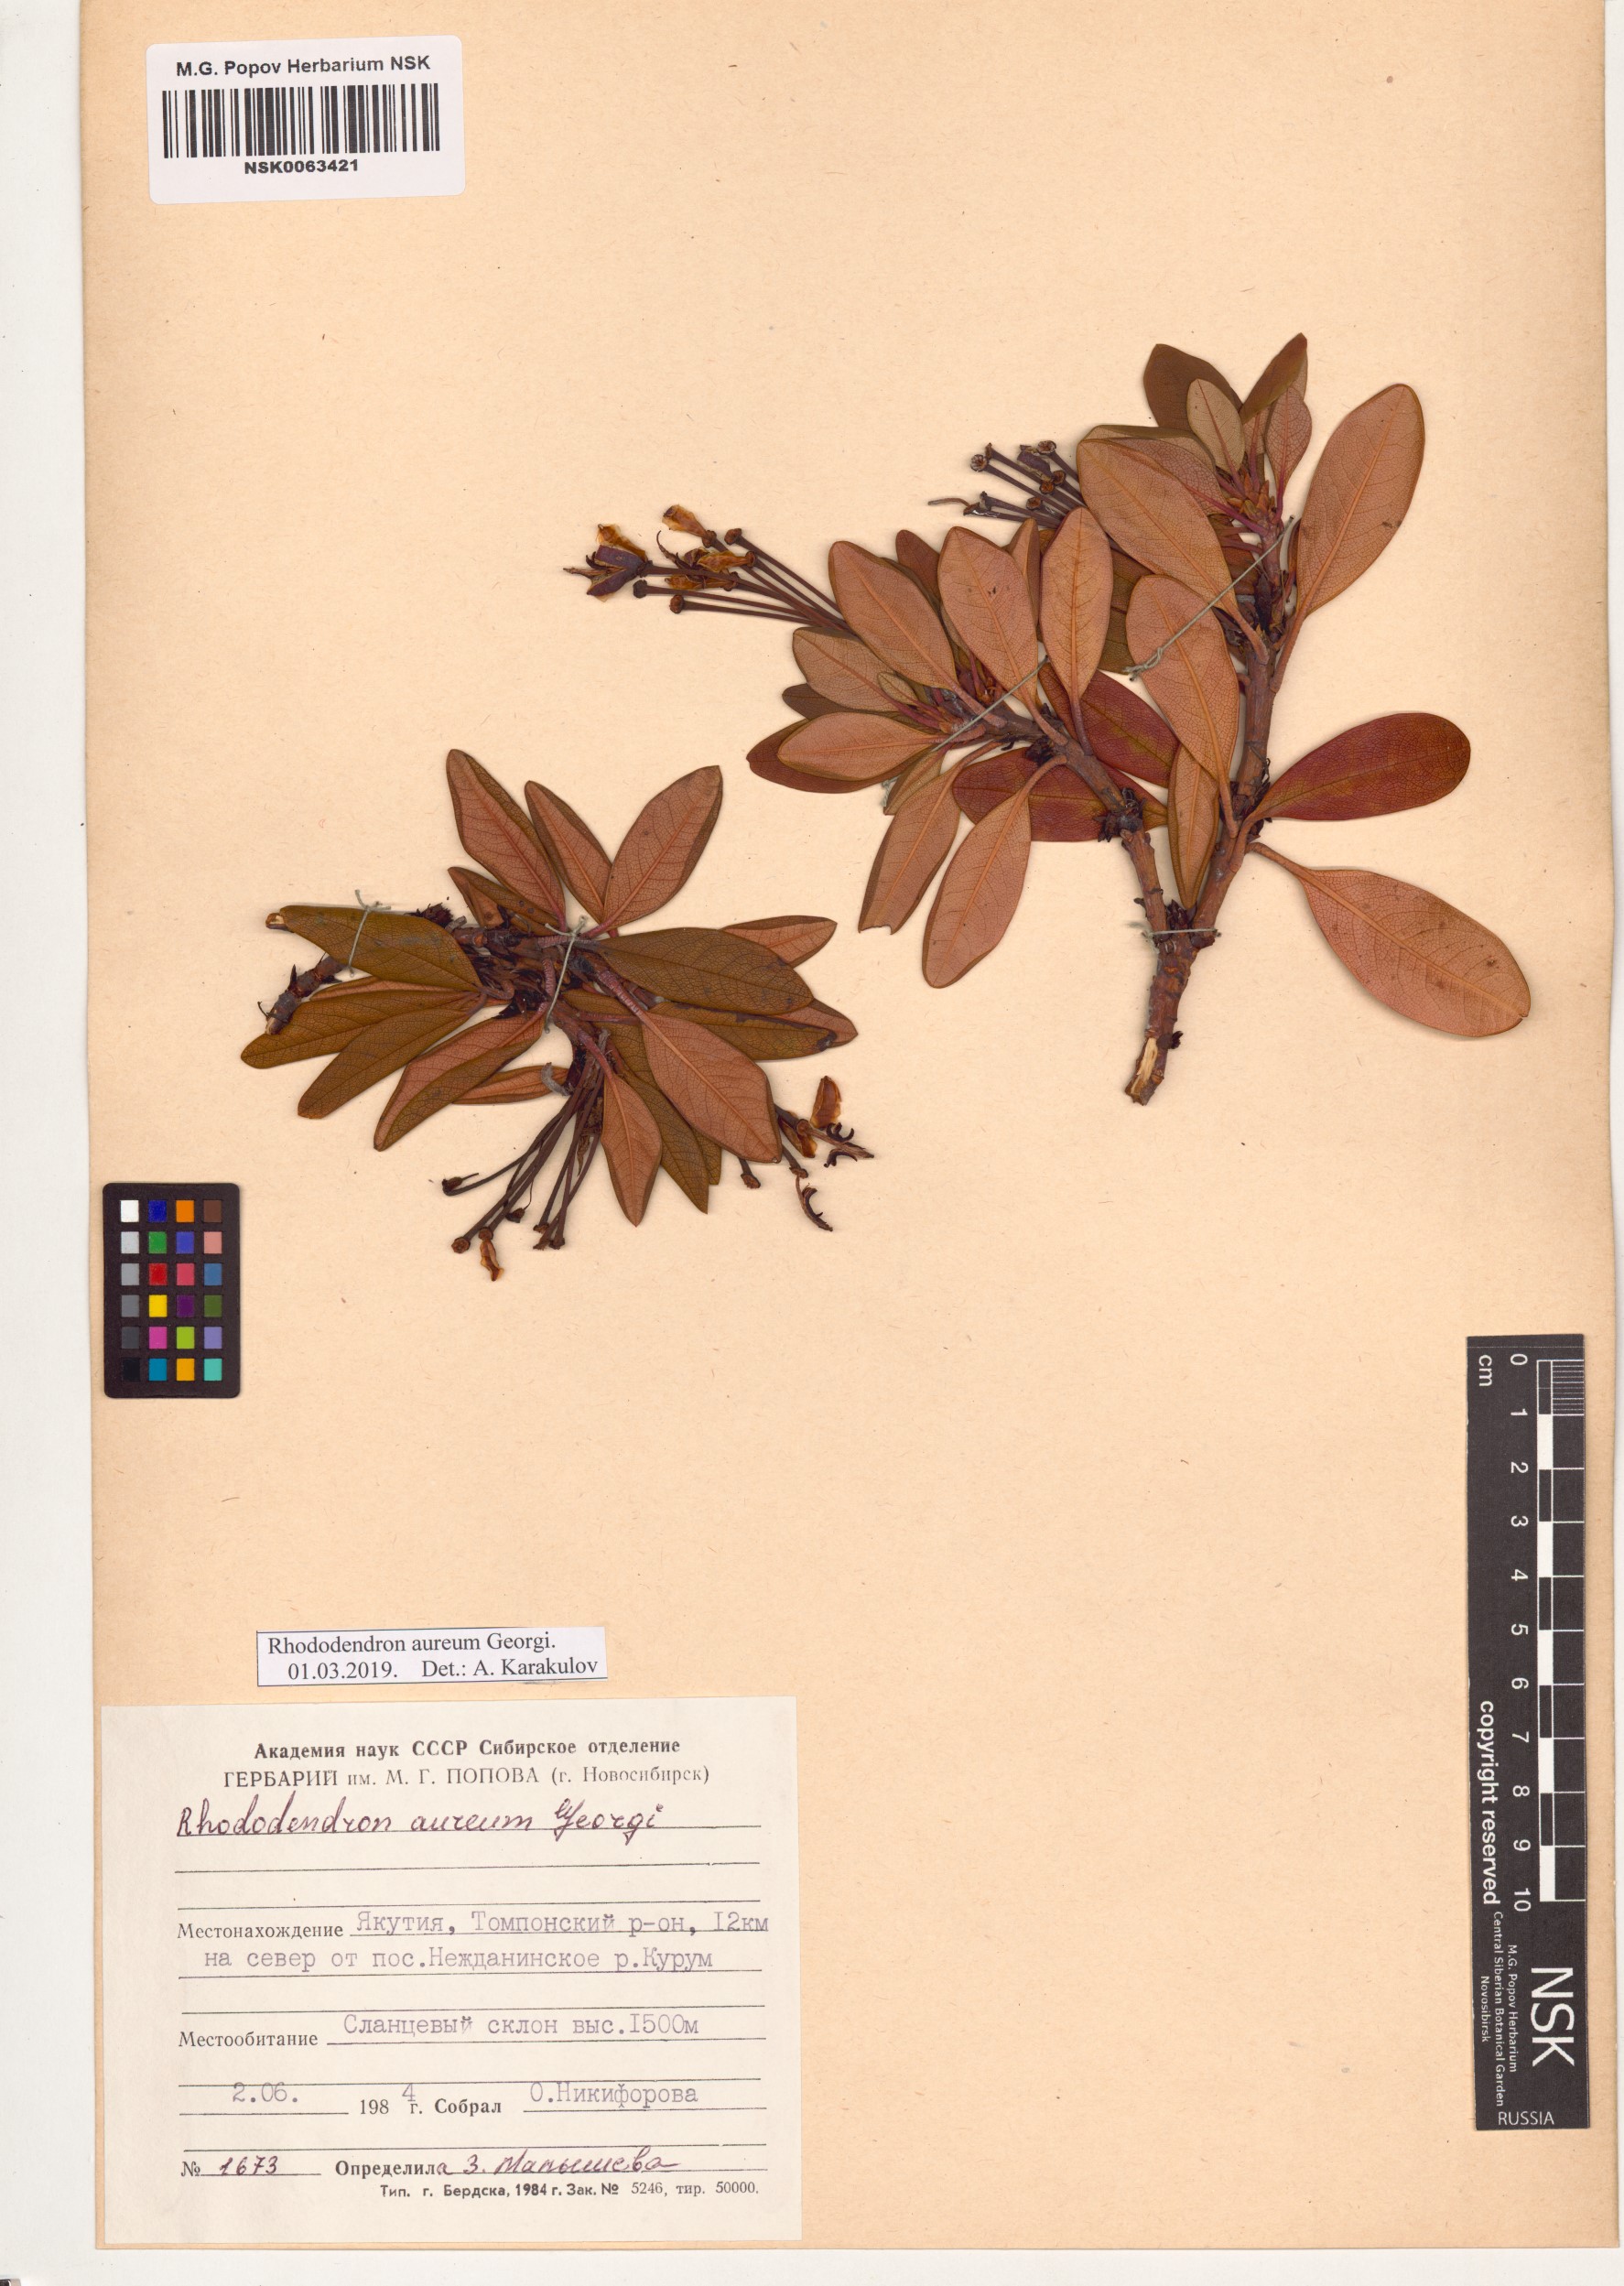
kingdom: Plantae
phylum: Tracheophyta
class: Magnoliopsida
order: Ericales
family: Ericaceae
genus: Rhododendron
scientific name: Rhododendron aureum
